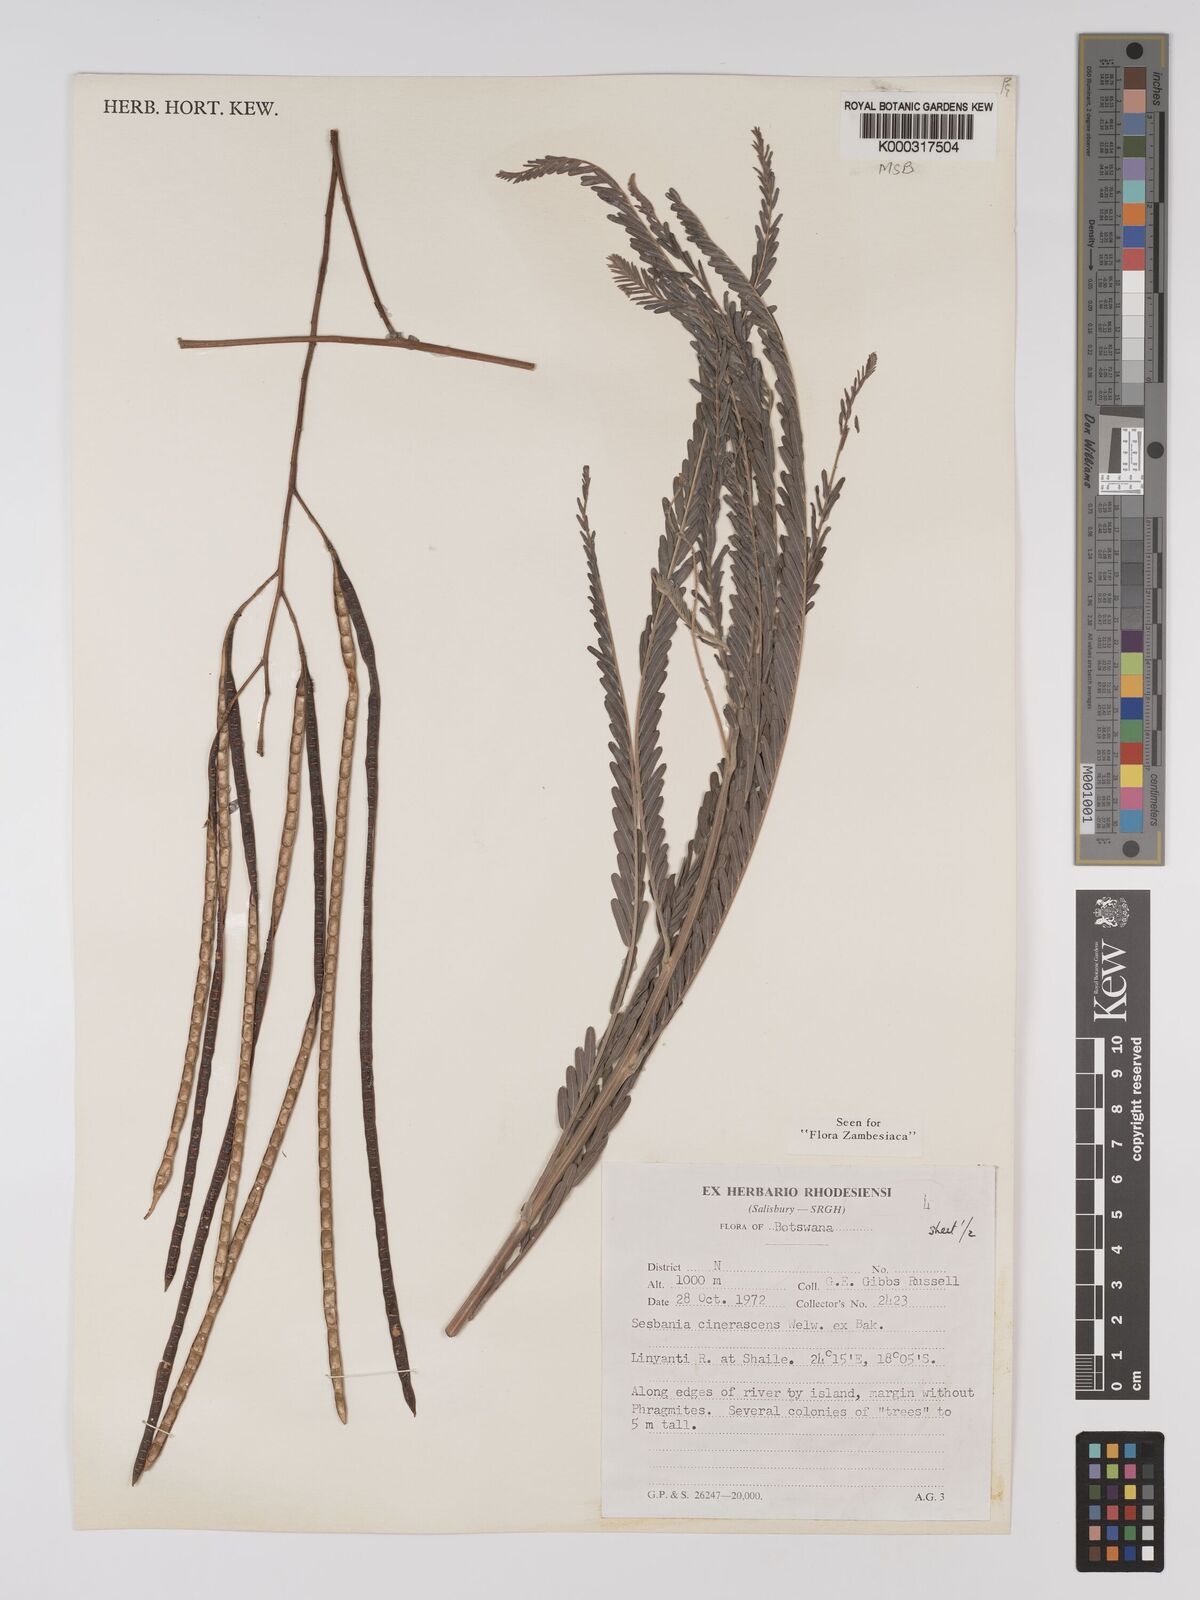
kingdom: Plantae
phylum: Tracheophyta
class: Magnoliopsida
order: Fabales
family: Fabaceae
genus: Sesbania
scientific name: Sesbania cinerascens
